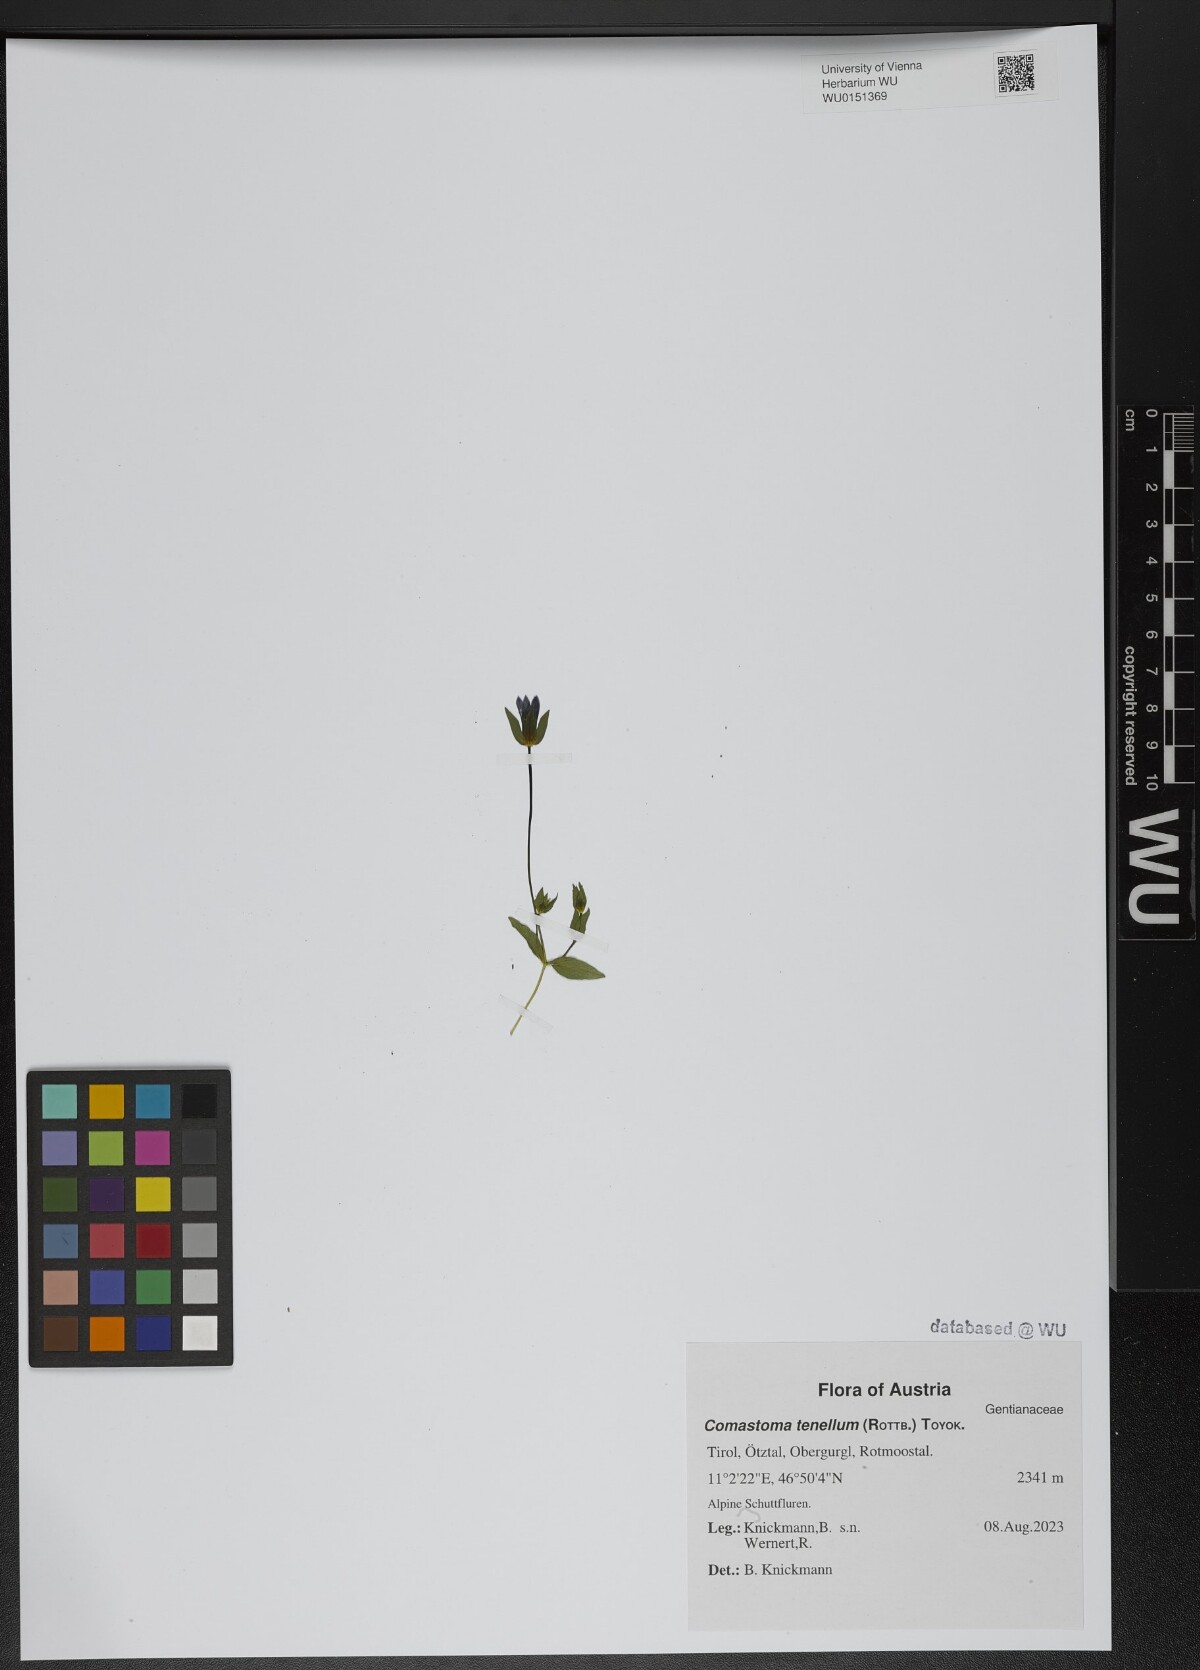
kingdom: Plantae
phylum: Tracheophyta
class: Magnoliopsida
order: Gentianales
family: Gentianaceae
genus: Comastoma
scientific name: Comastoma tenellum
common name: Dane's dwarf gentian
